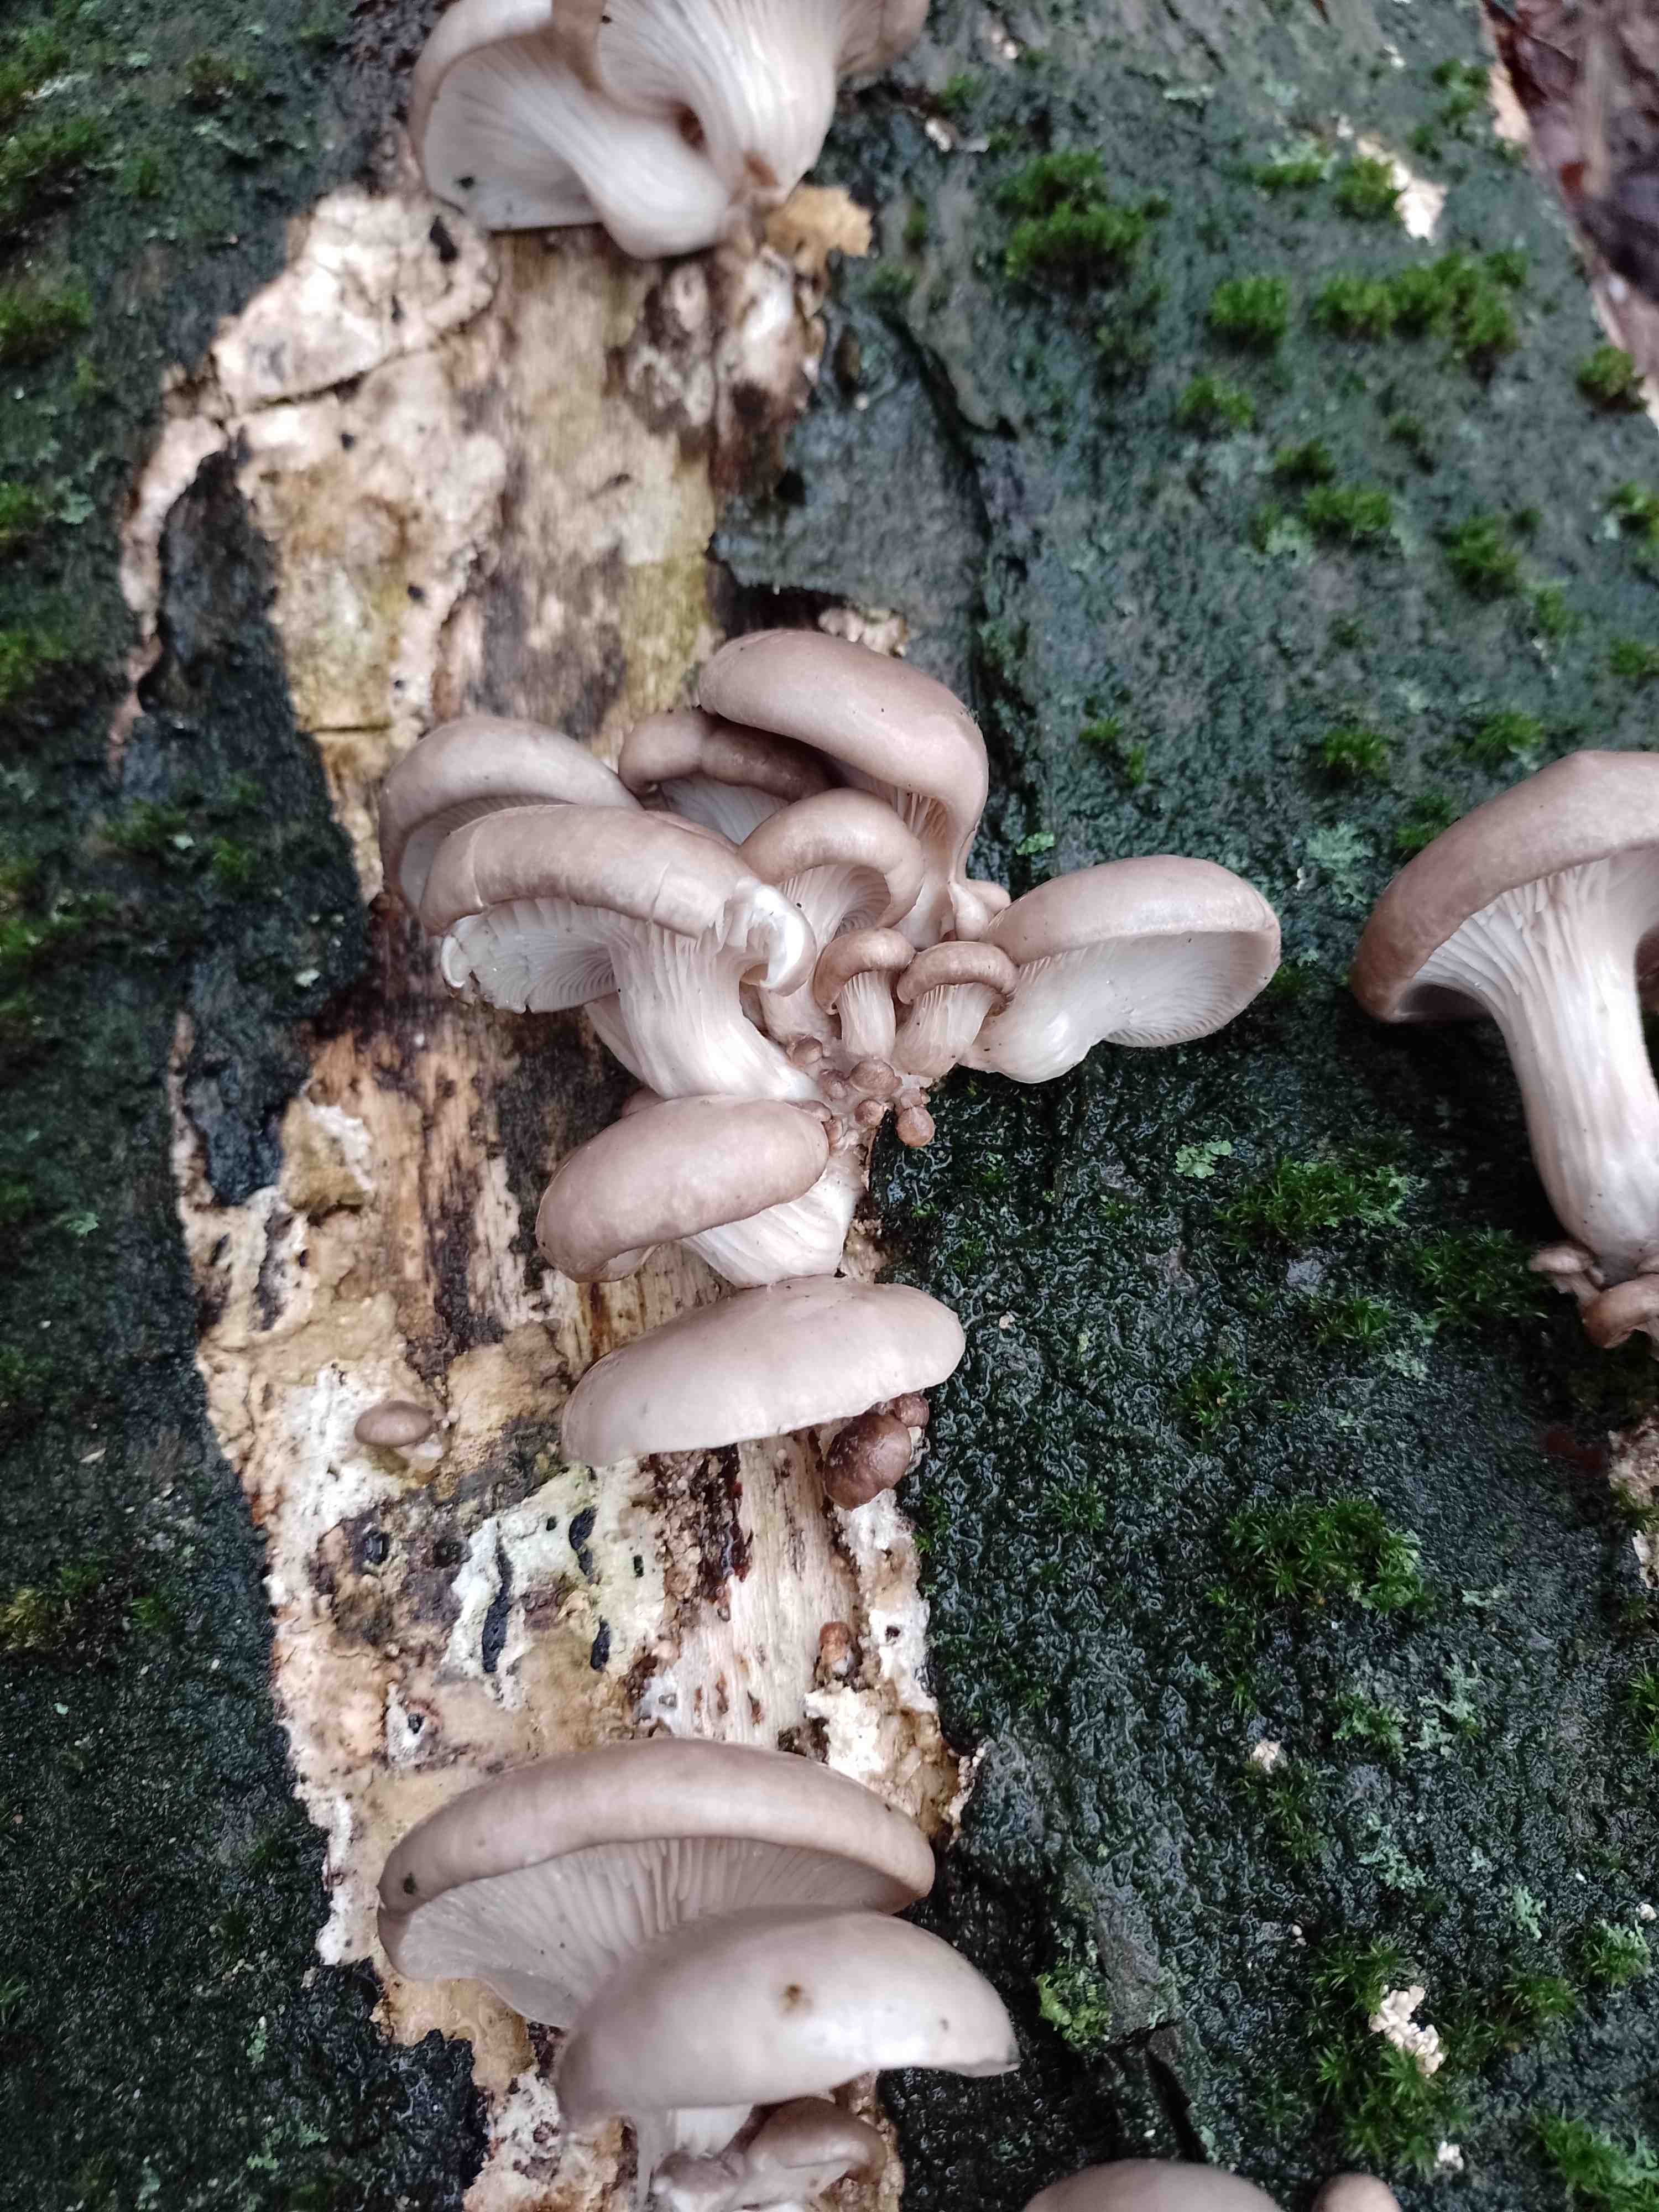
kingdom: Fungi
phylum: Basidiomycota
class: Agaricomycetes
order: Agaricales
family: Pleurotaceae
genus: Pleurotus
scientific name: Pleurotus ostreatus
